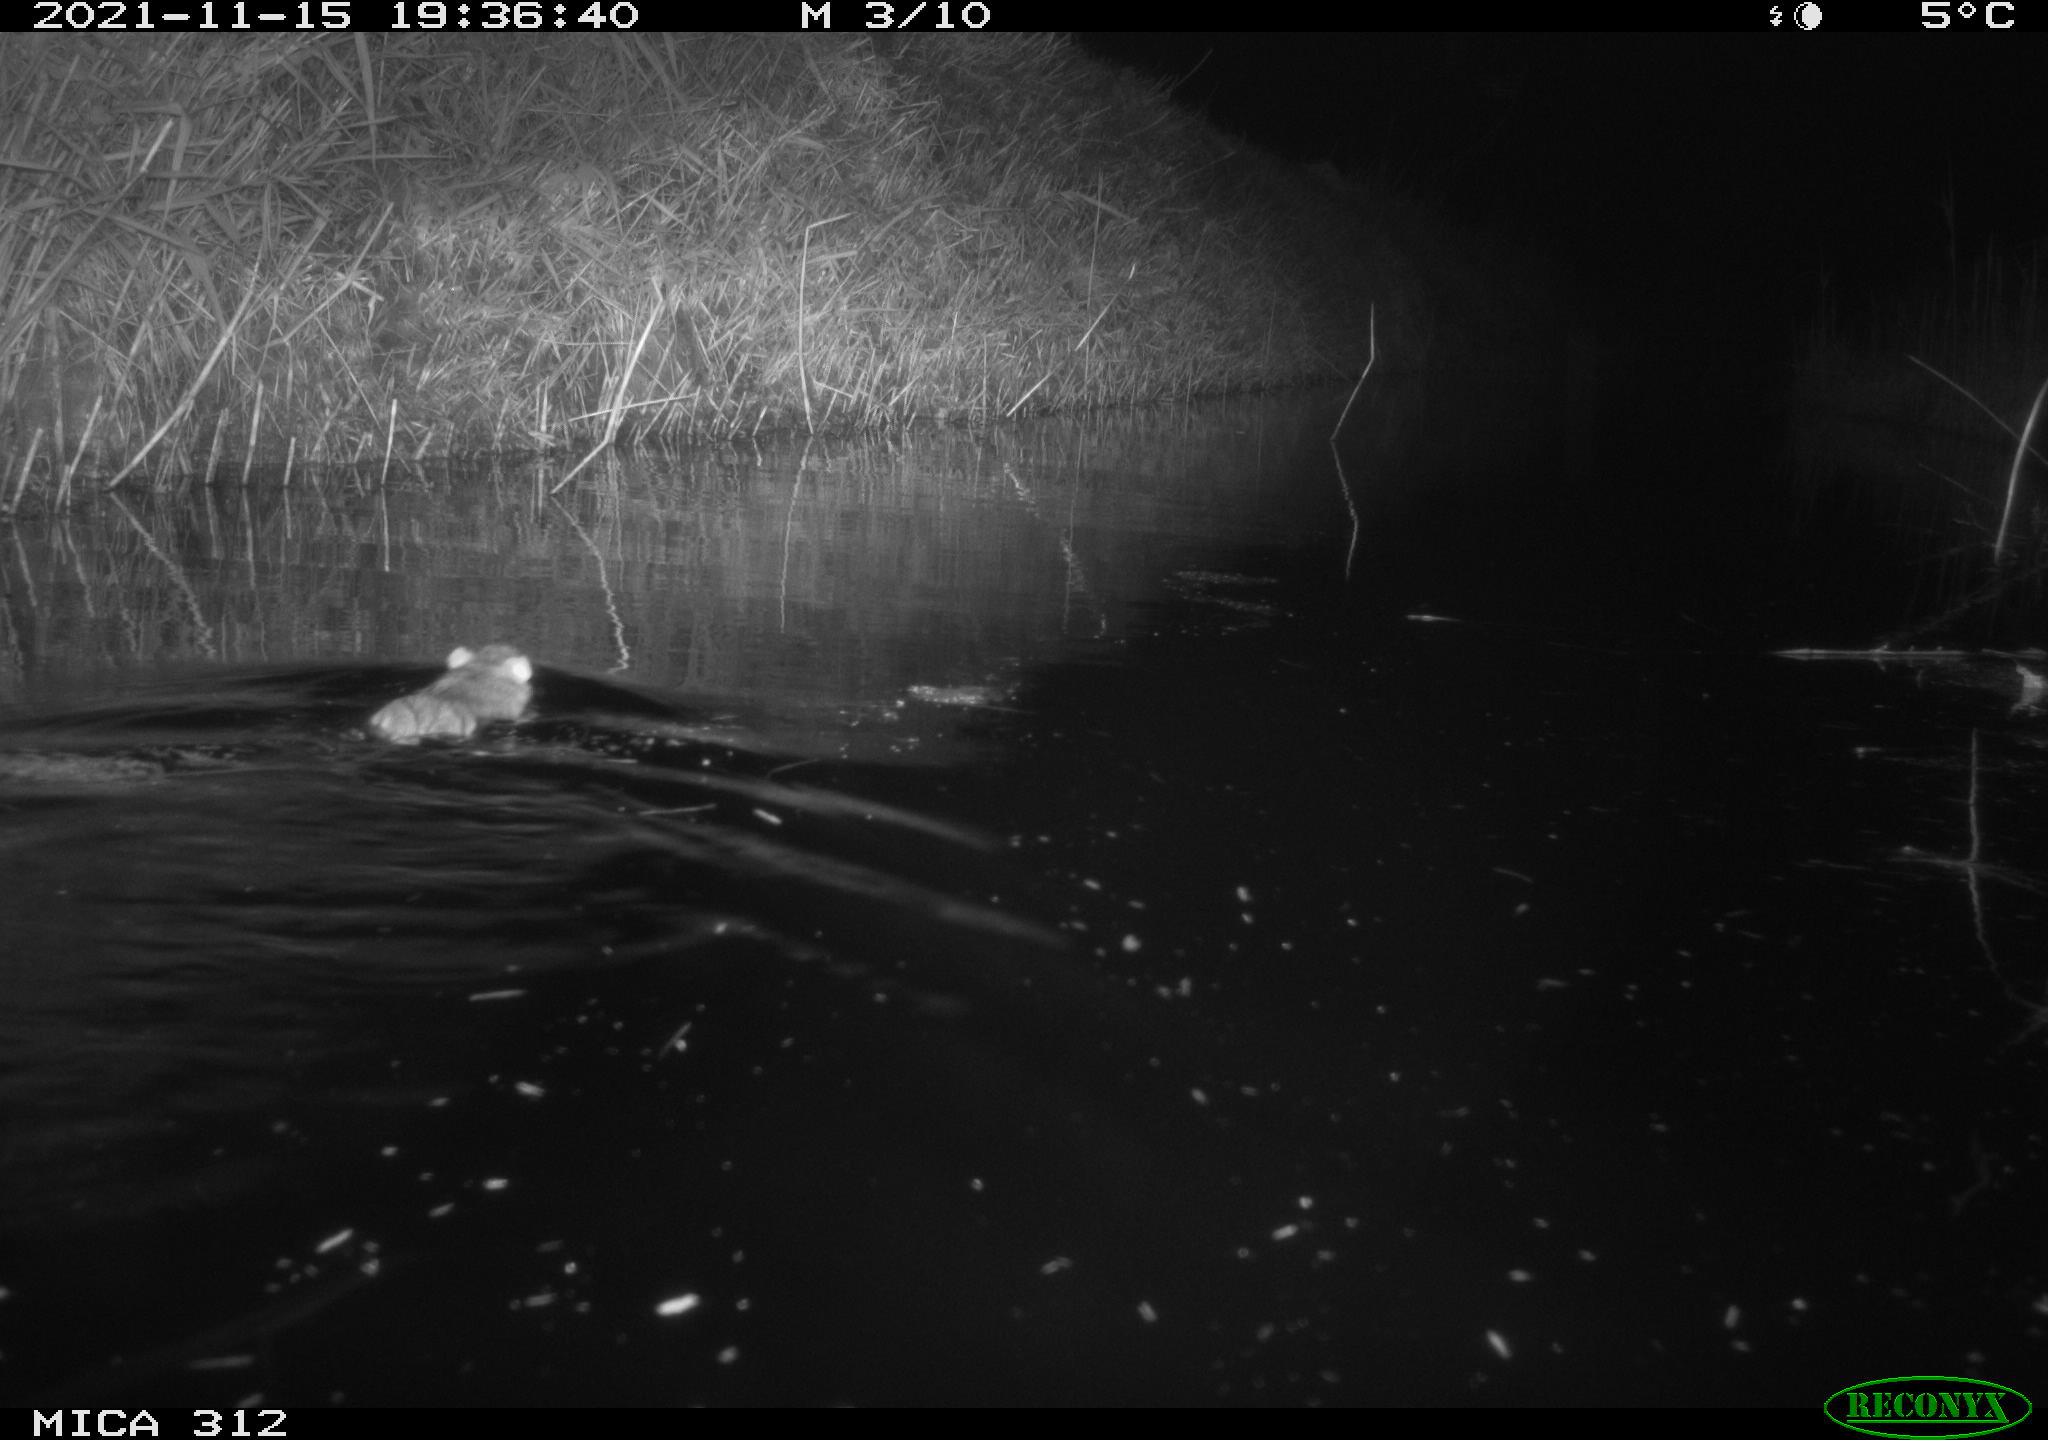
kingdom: Animalia
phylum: Chordata
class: Mammalia
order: Rodentia
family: Muridae
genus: Rattus
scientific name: Rattus norvegicus
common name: Brown rat
